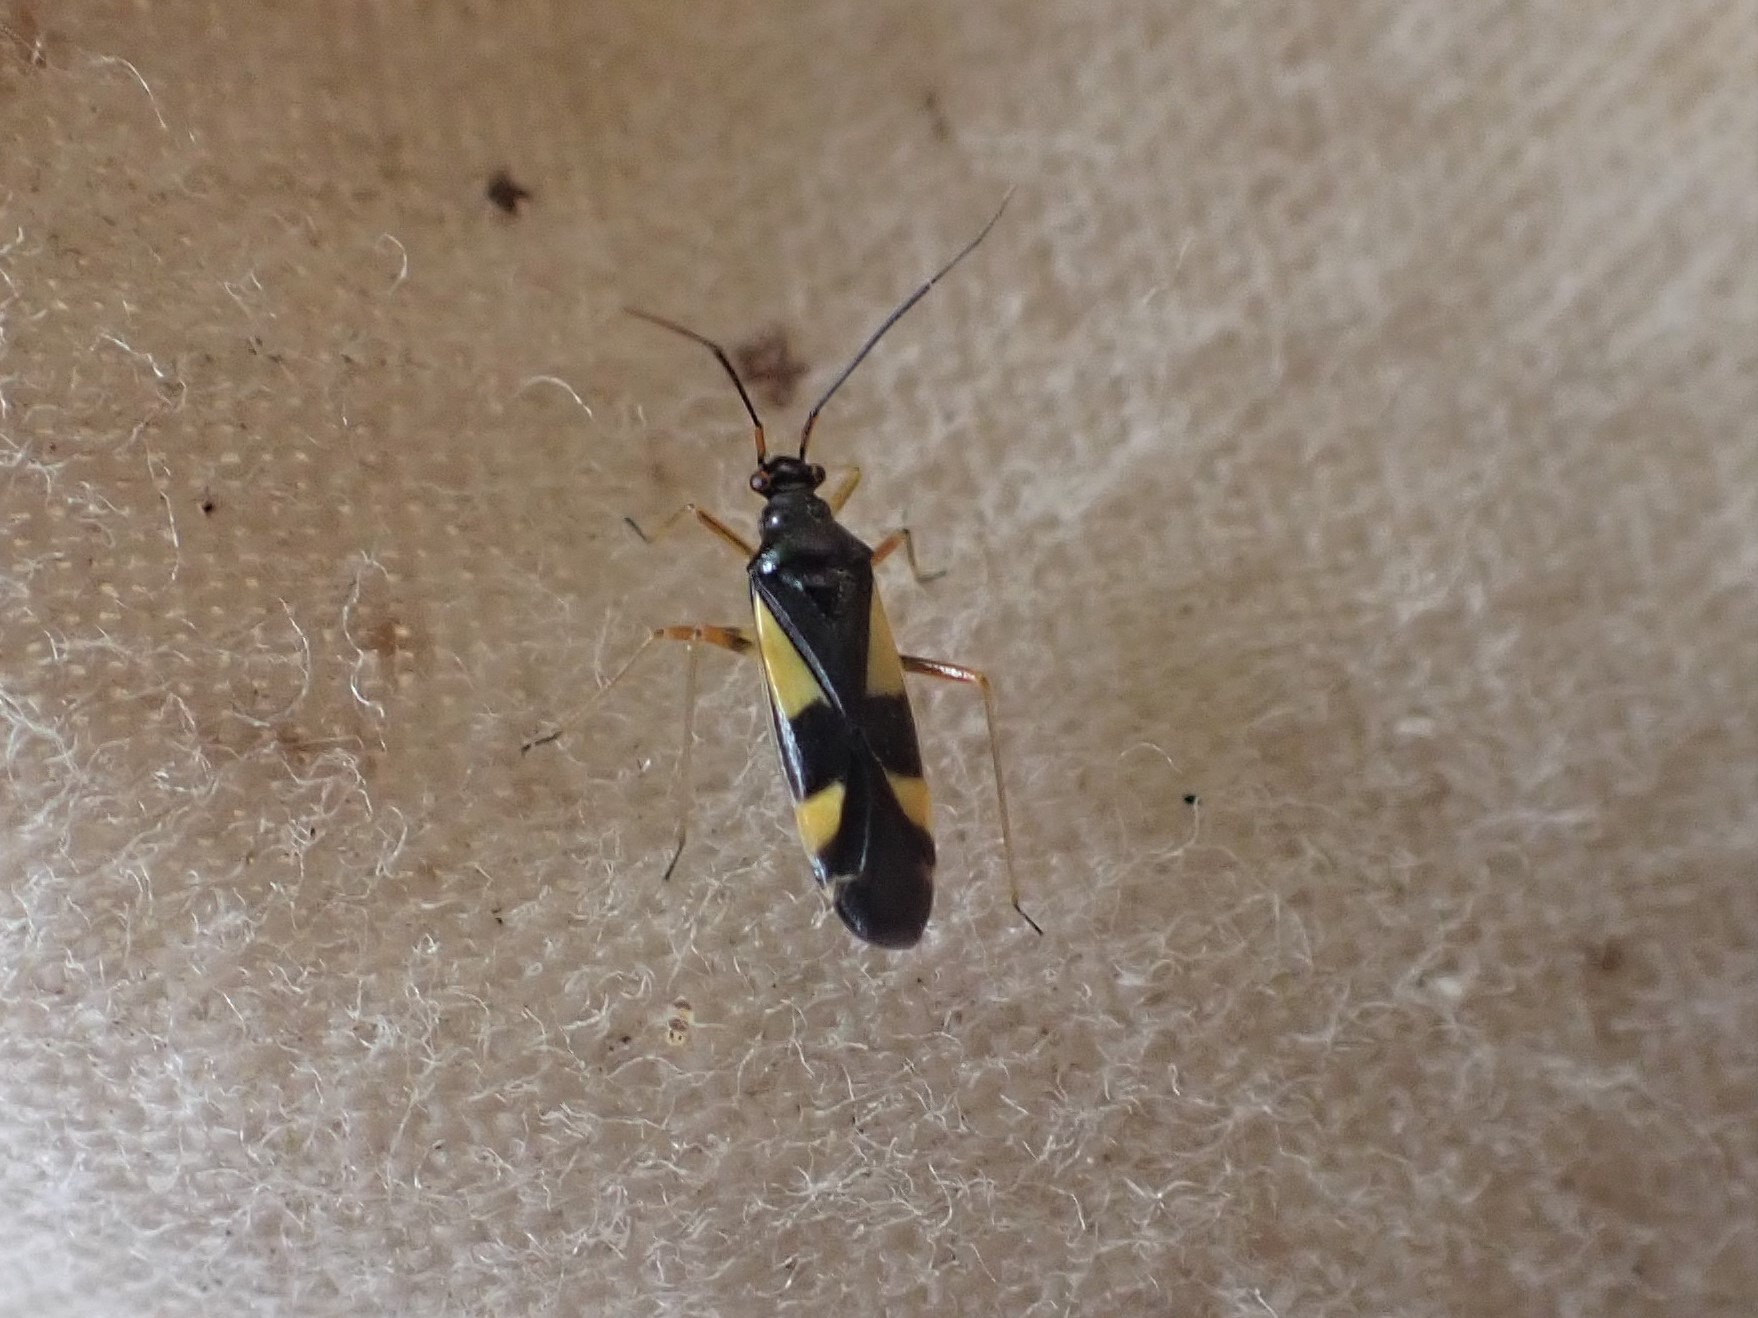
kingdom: Animalia
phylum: Arthropoda
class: Insecta
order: Hemiptera
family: Miridae
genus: Dryophilocoris
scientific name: Dryophilocoris flavoquadrimaculatus
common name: Fireplettet blomstertæge
